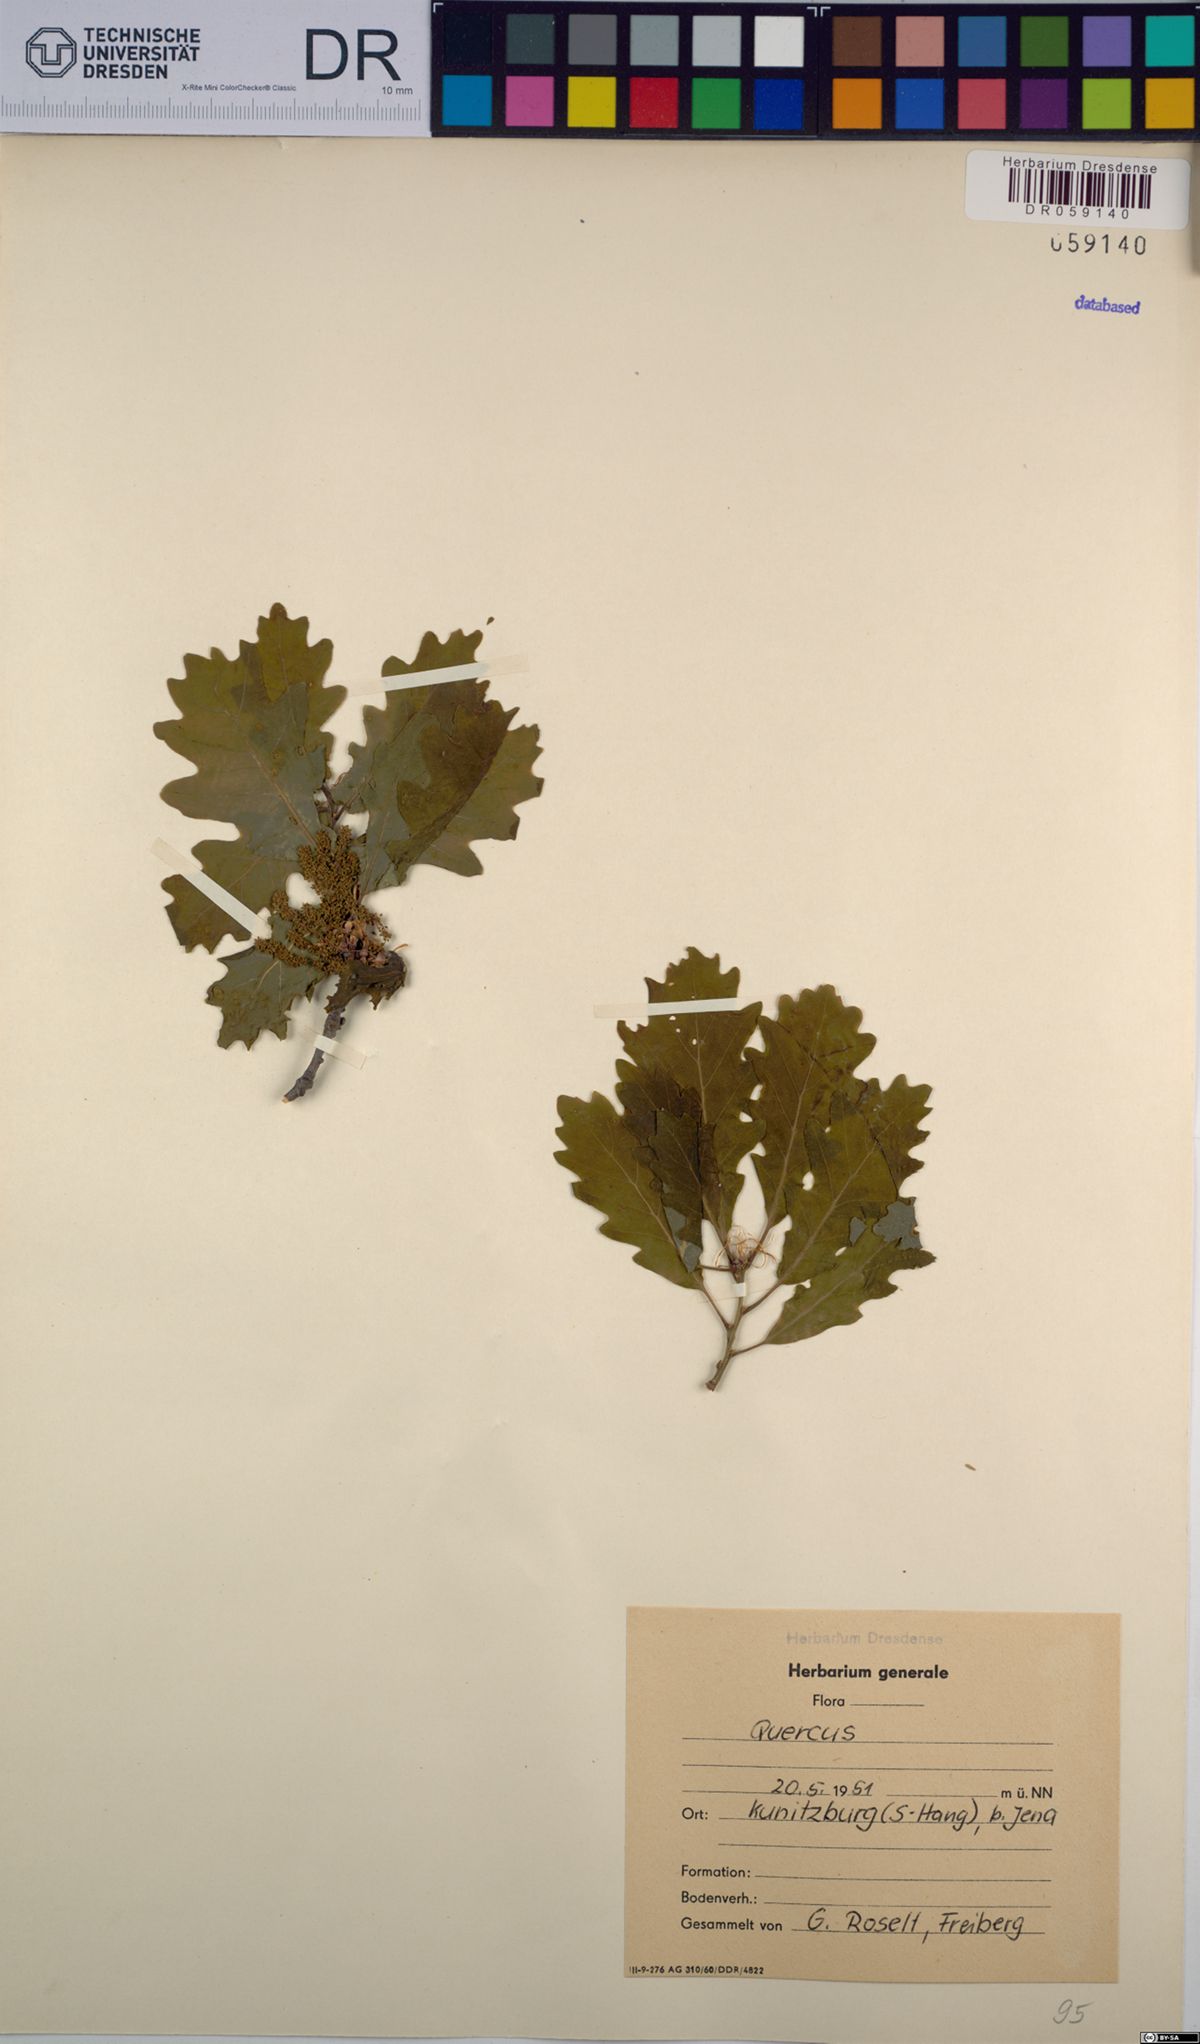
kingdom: Plantae
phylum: Tracheophyta
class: Magnoliopsida
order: Fagales
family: Fagaceae
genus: Quercus
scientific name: Quercus
